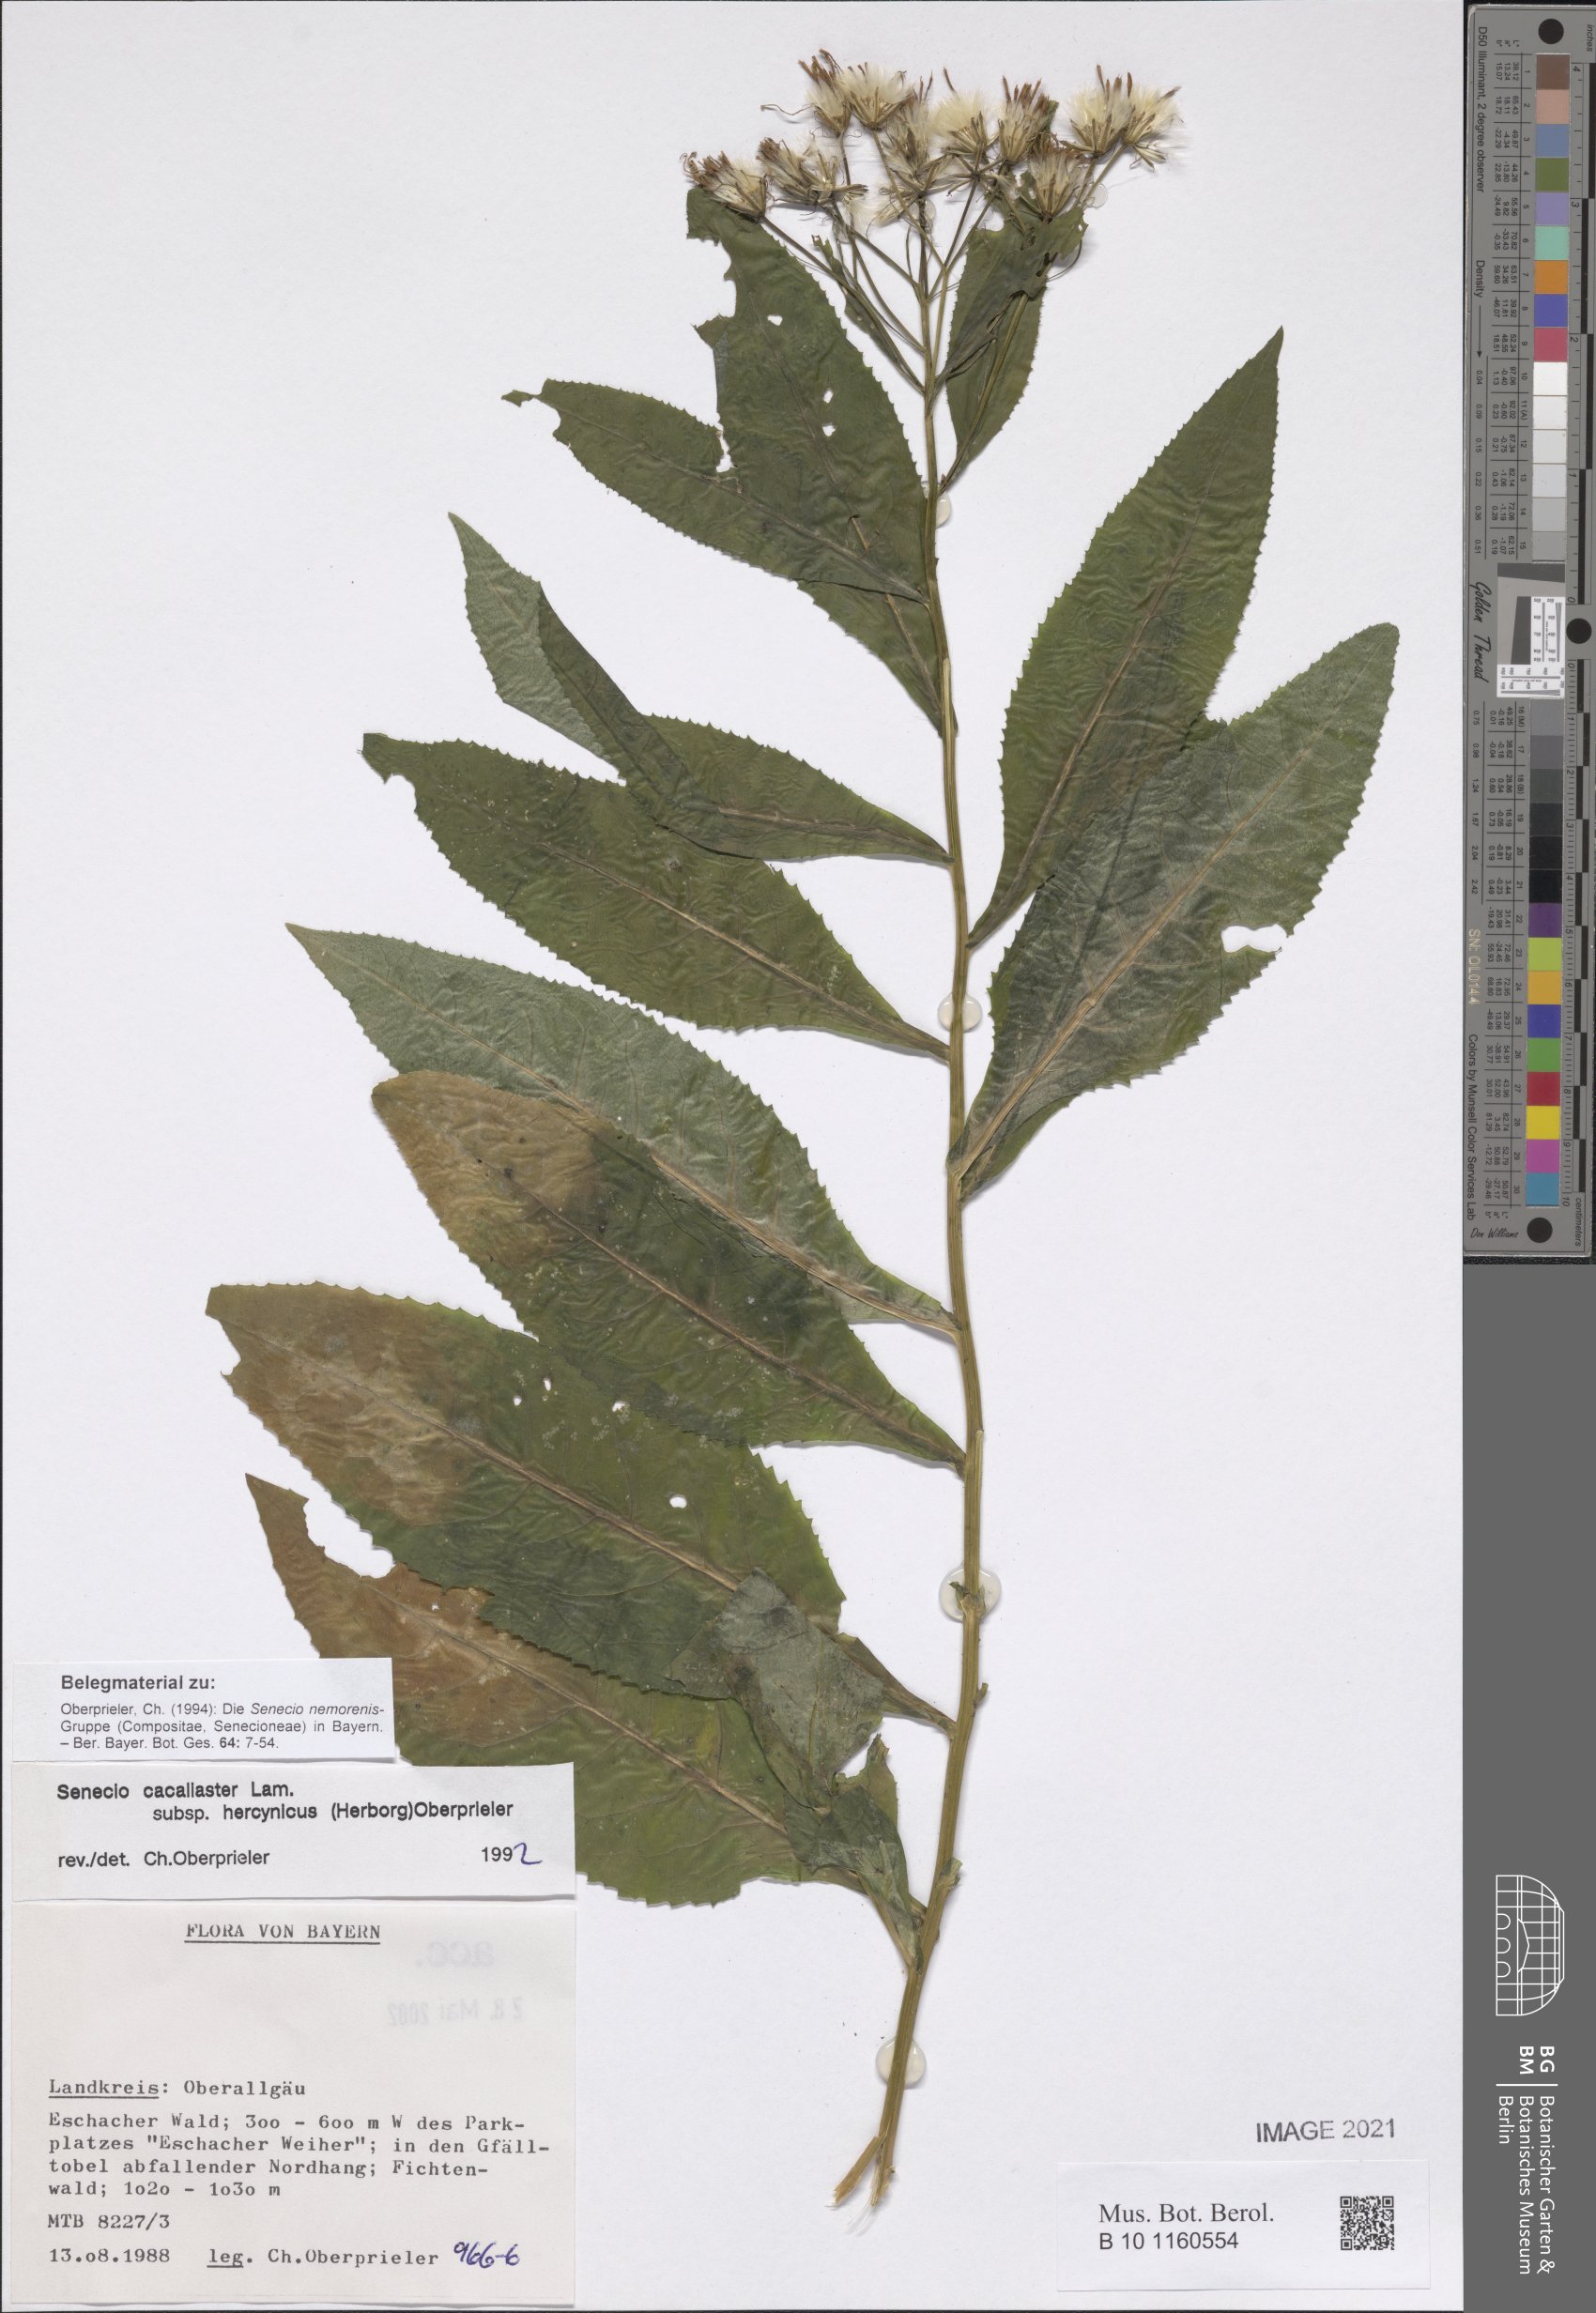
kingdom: Plantae
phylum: Tracheophyta
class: Magnoliopsida
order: Asterales
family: Asteraceae
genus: Senecio
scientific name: Senecio hercynicus
